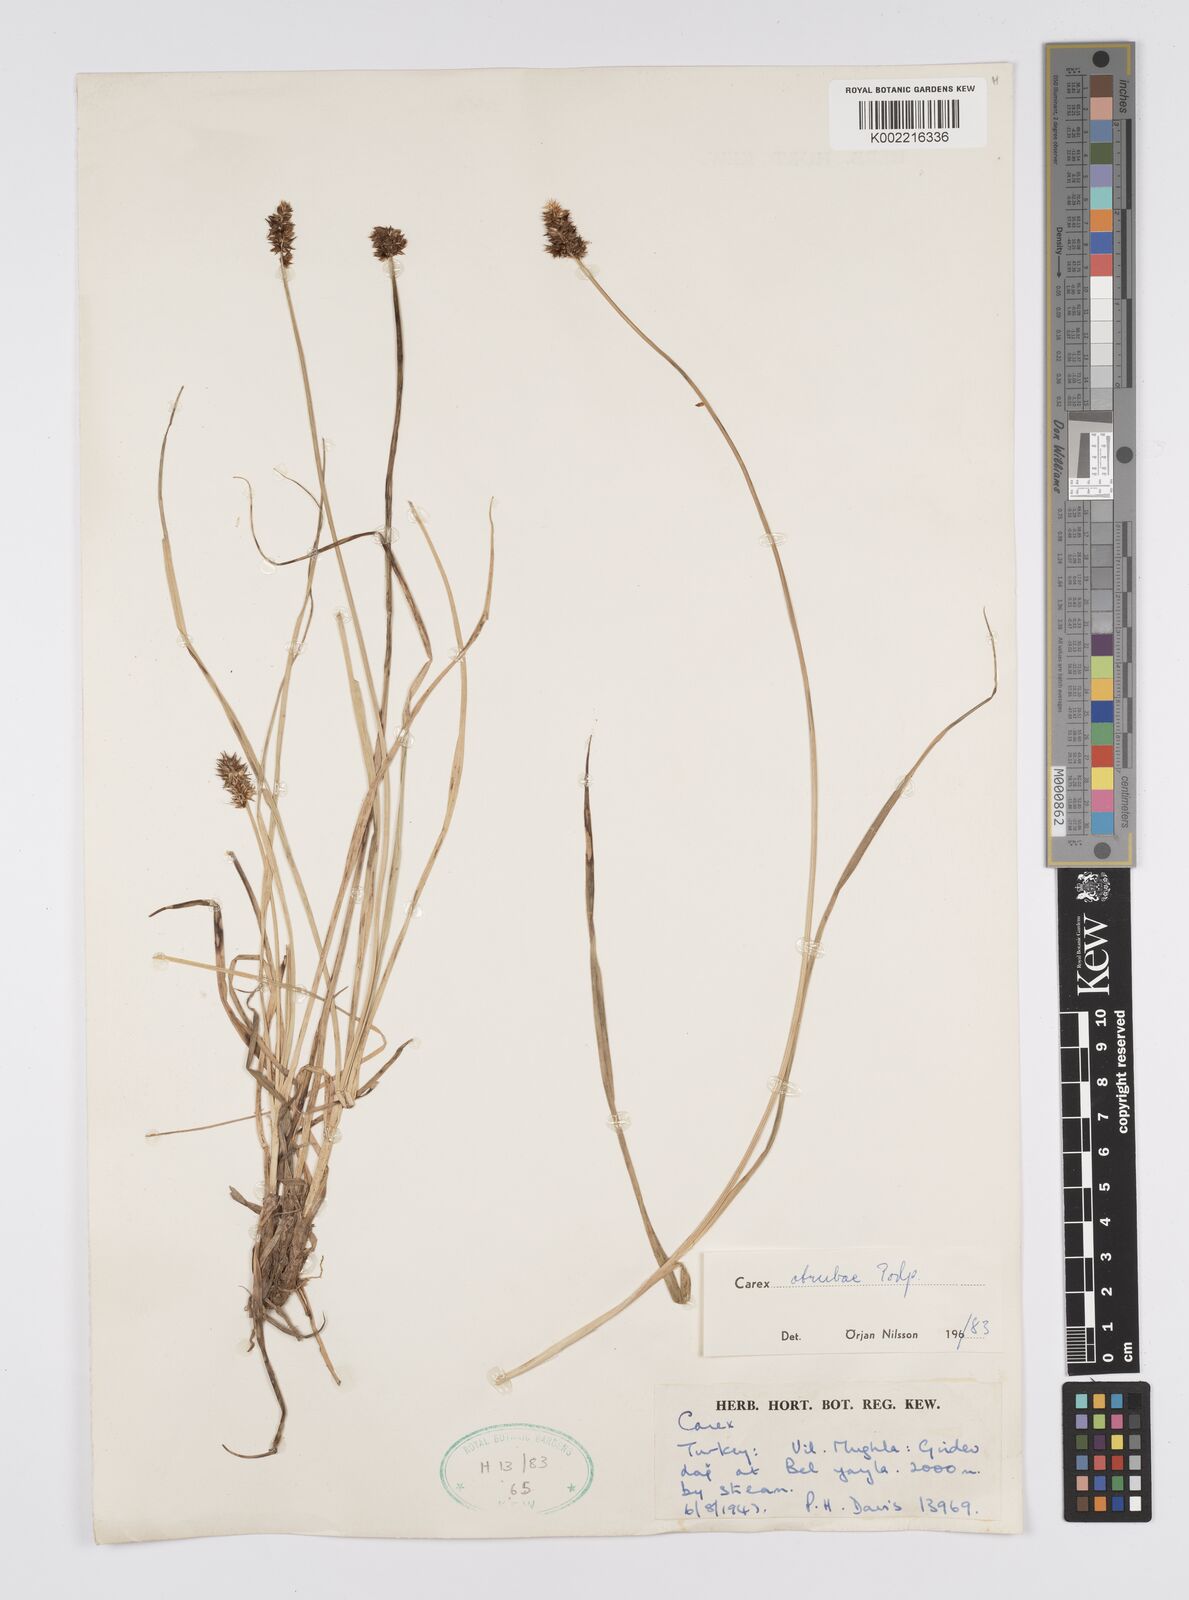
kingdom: Plantae
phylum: Tracheophyta
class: Liliopsida
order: Poales
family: Cyperaceae
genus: Carex
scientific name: Carex otrubae
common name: False fox-sedge
